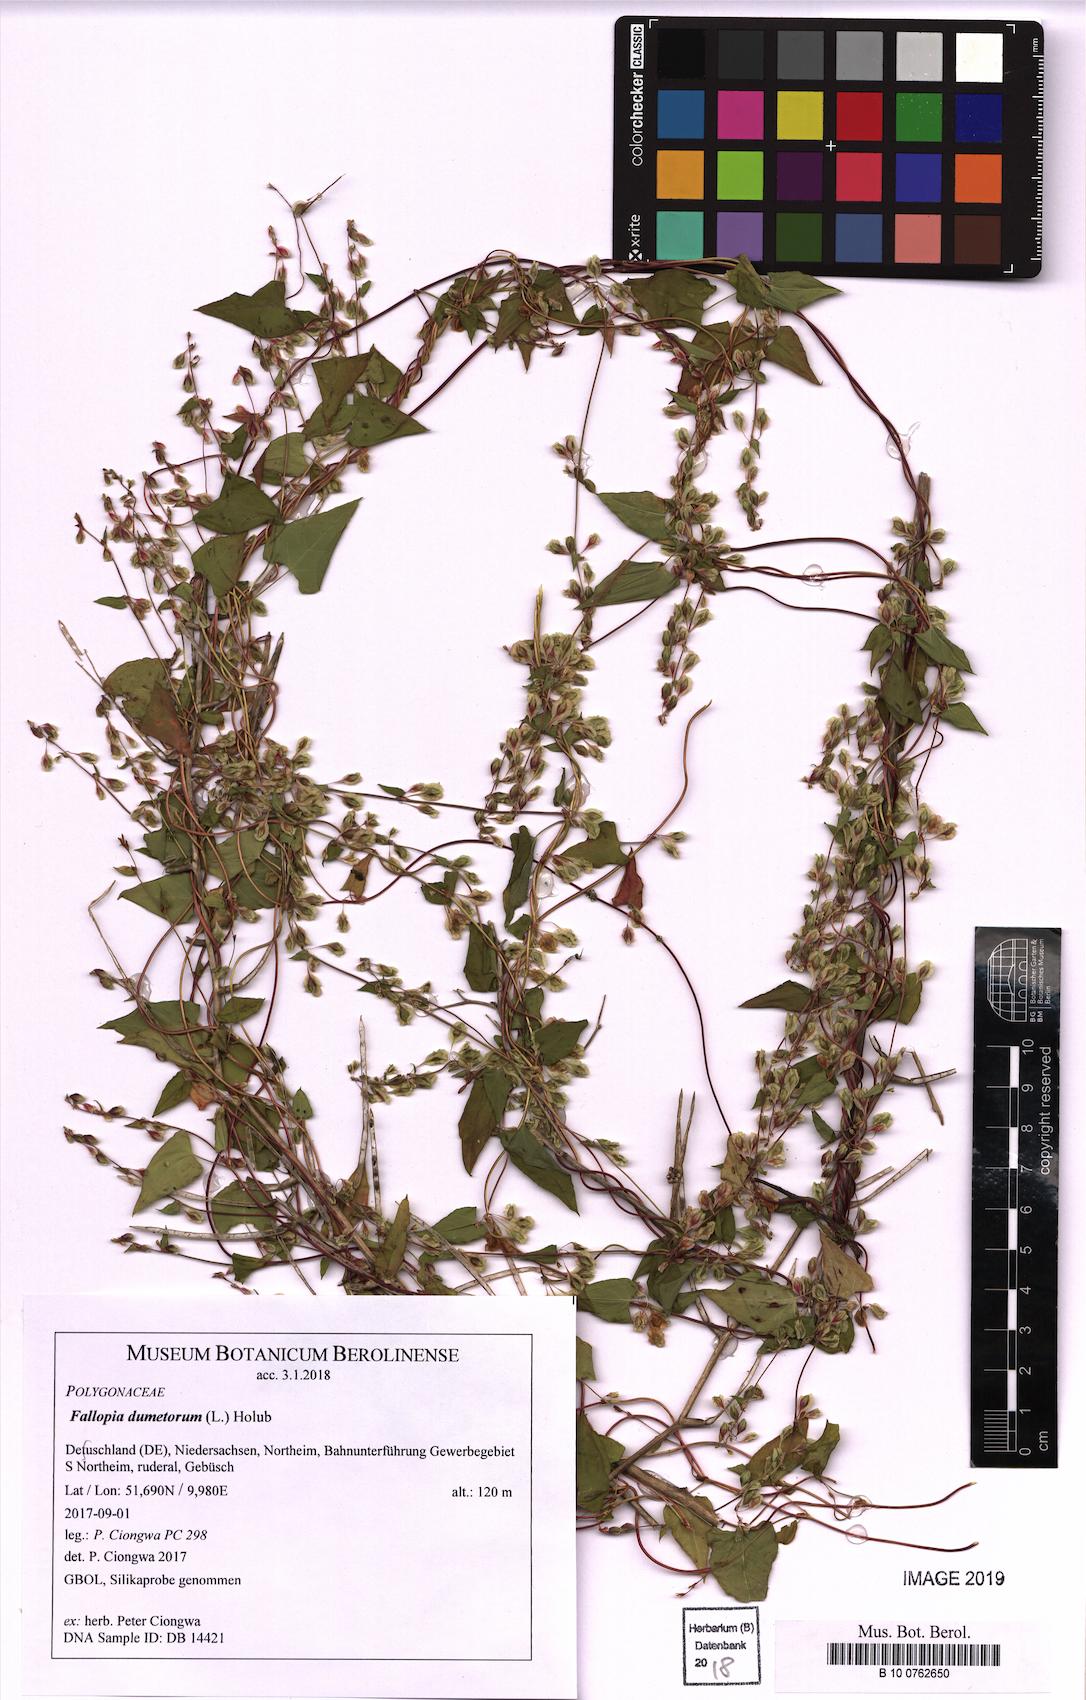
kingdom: Plantae
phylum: Tracheophyta
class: Magnoliopsida
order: Caryophyllales
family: Polygonaceae
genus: Fallopia
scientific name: Fallopia dumetorum
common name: Copse-bindweed
